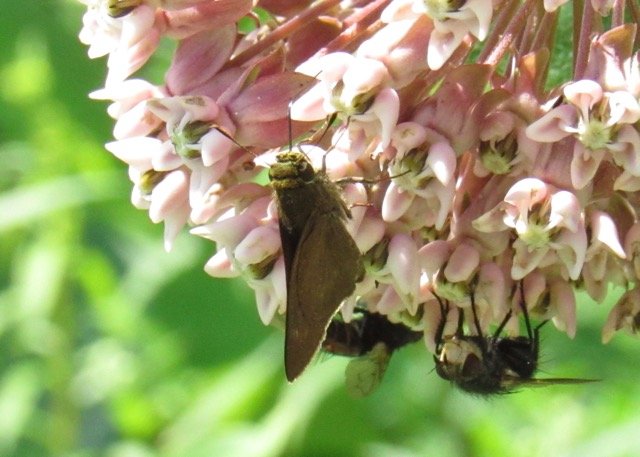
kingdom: Animalia
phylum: Arthropoda
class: Insecta
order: Lepidoptera
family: Hesperiidae
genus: Polites
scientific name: Polites egeremet
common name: Northern Broken-Dash
